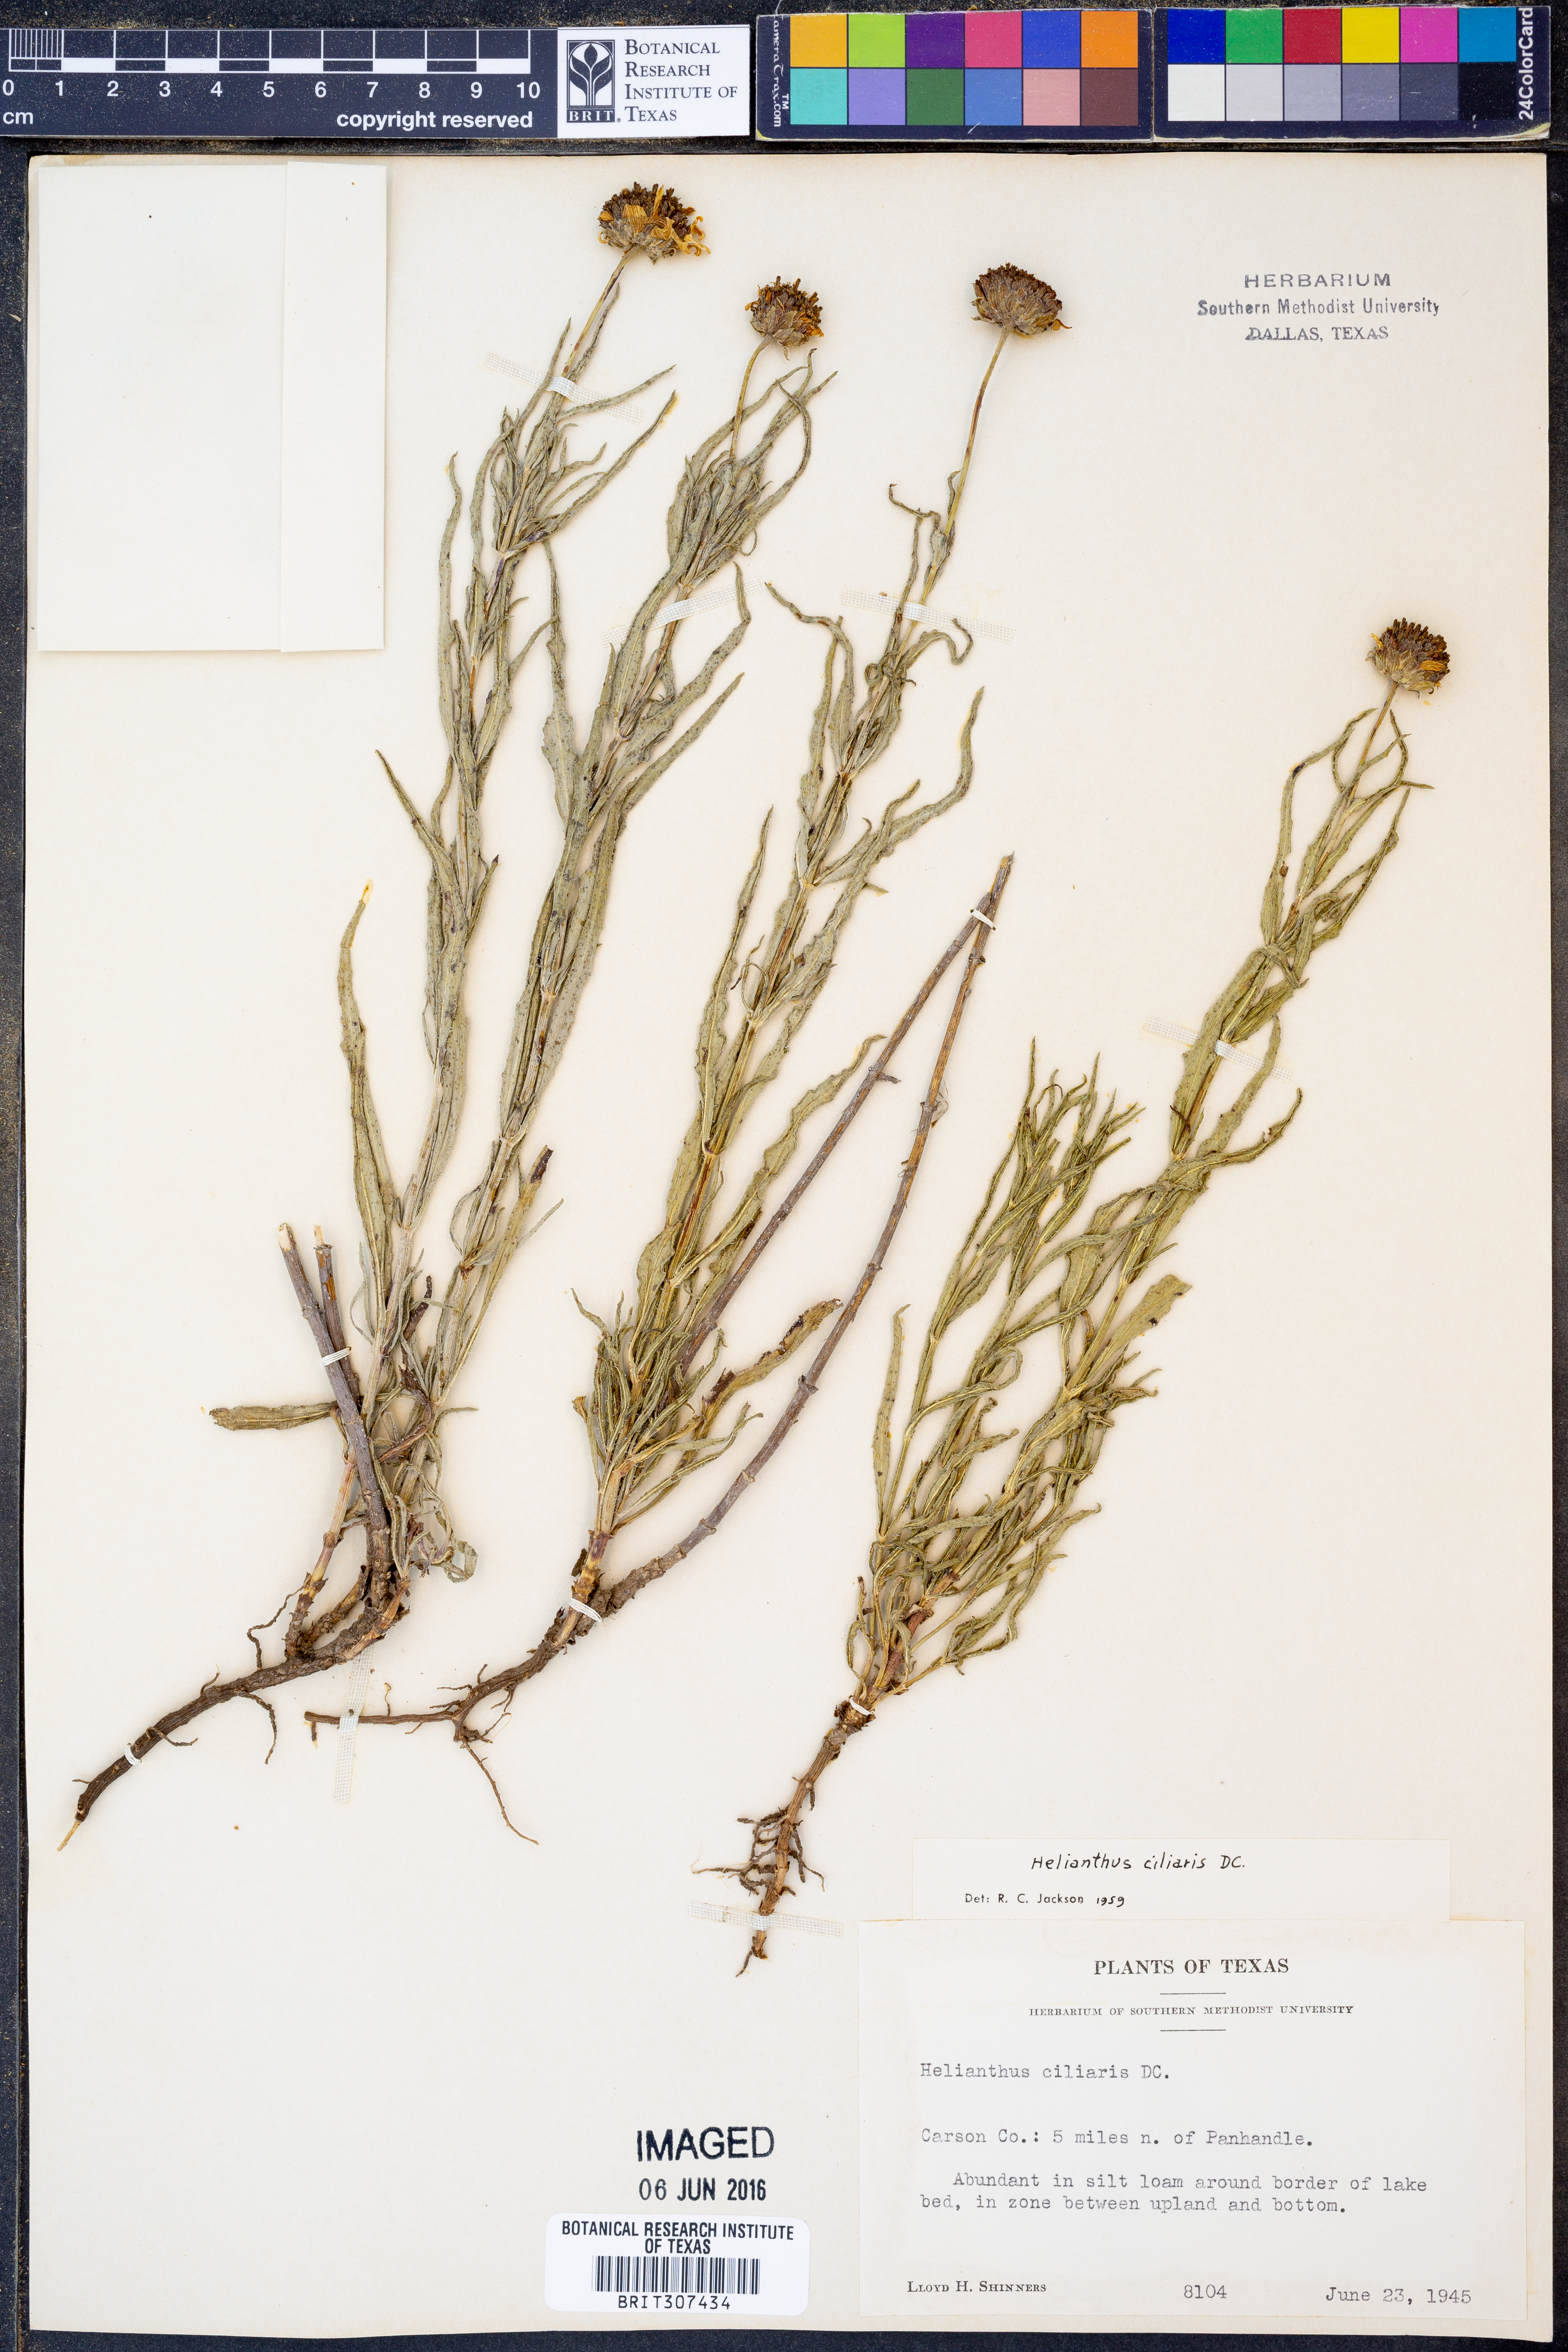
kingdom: Plantae
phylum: Tracheophyta
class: Magnoliopsida
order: Asterales
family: Asteraceae
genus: Helianthus
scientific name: Helianthus ciliaris
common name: Texas blueweed
